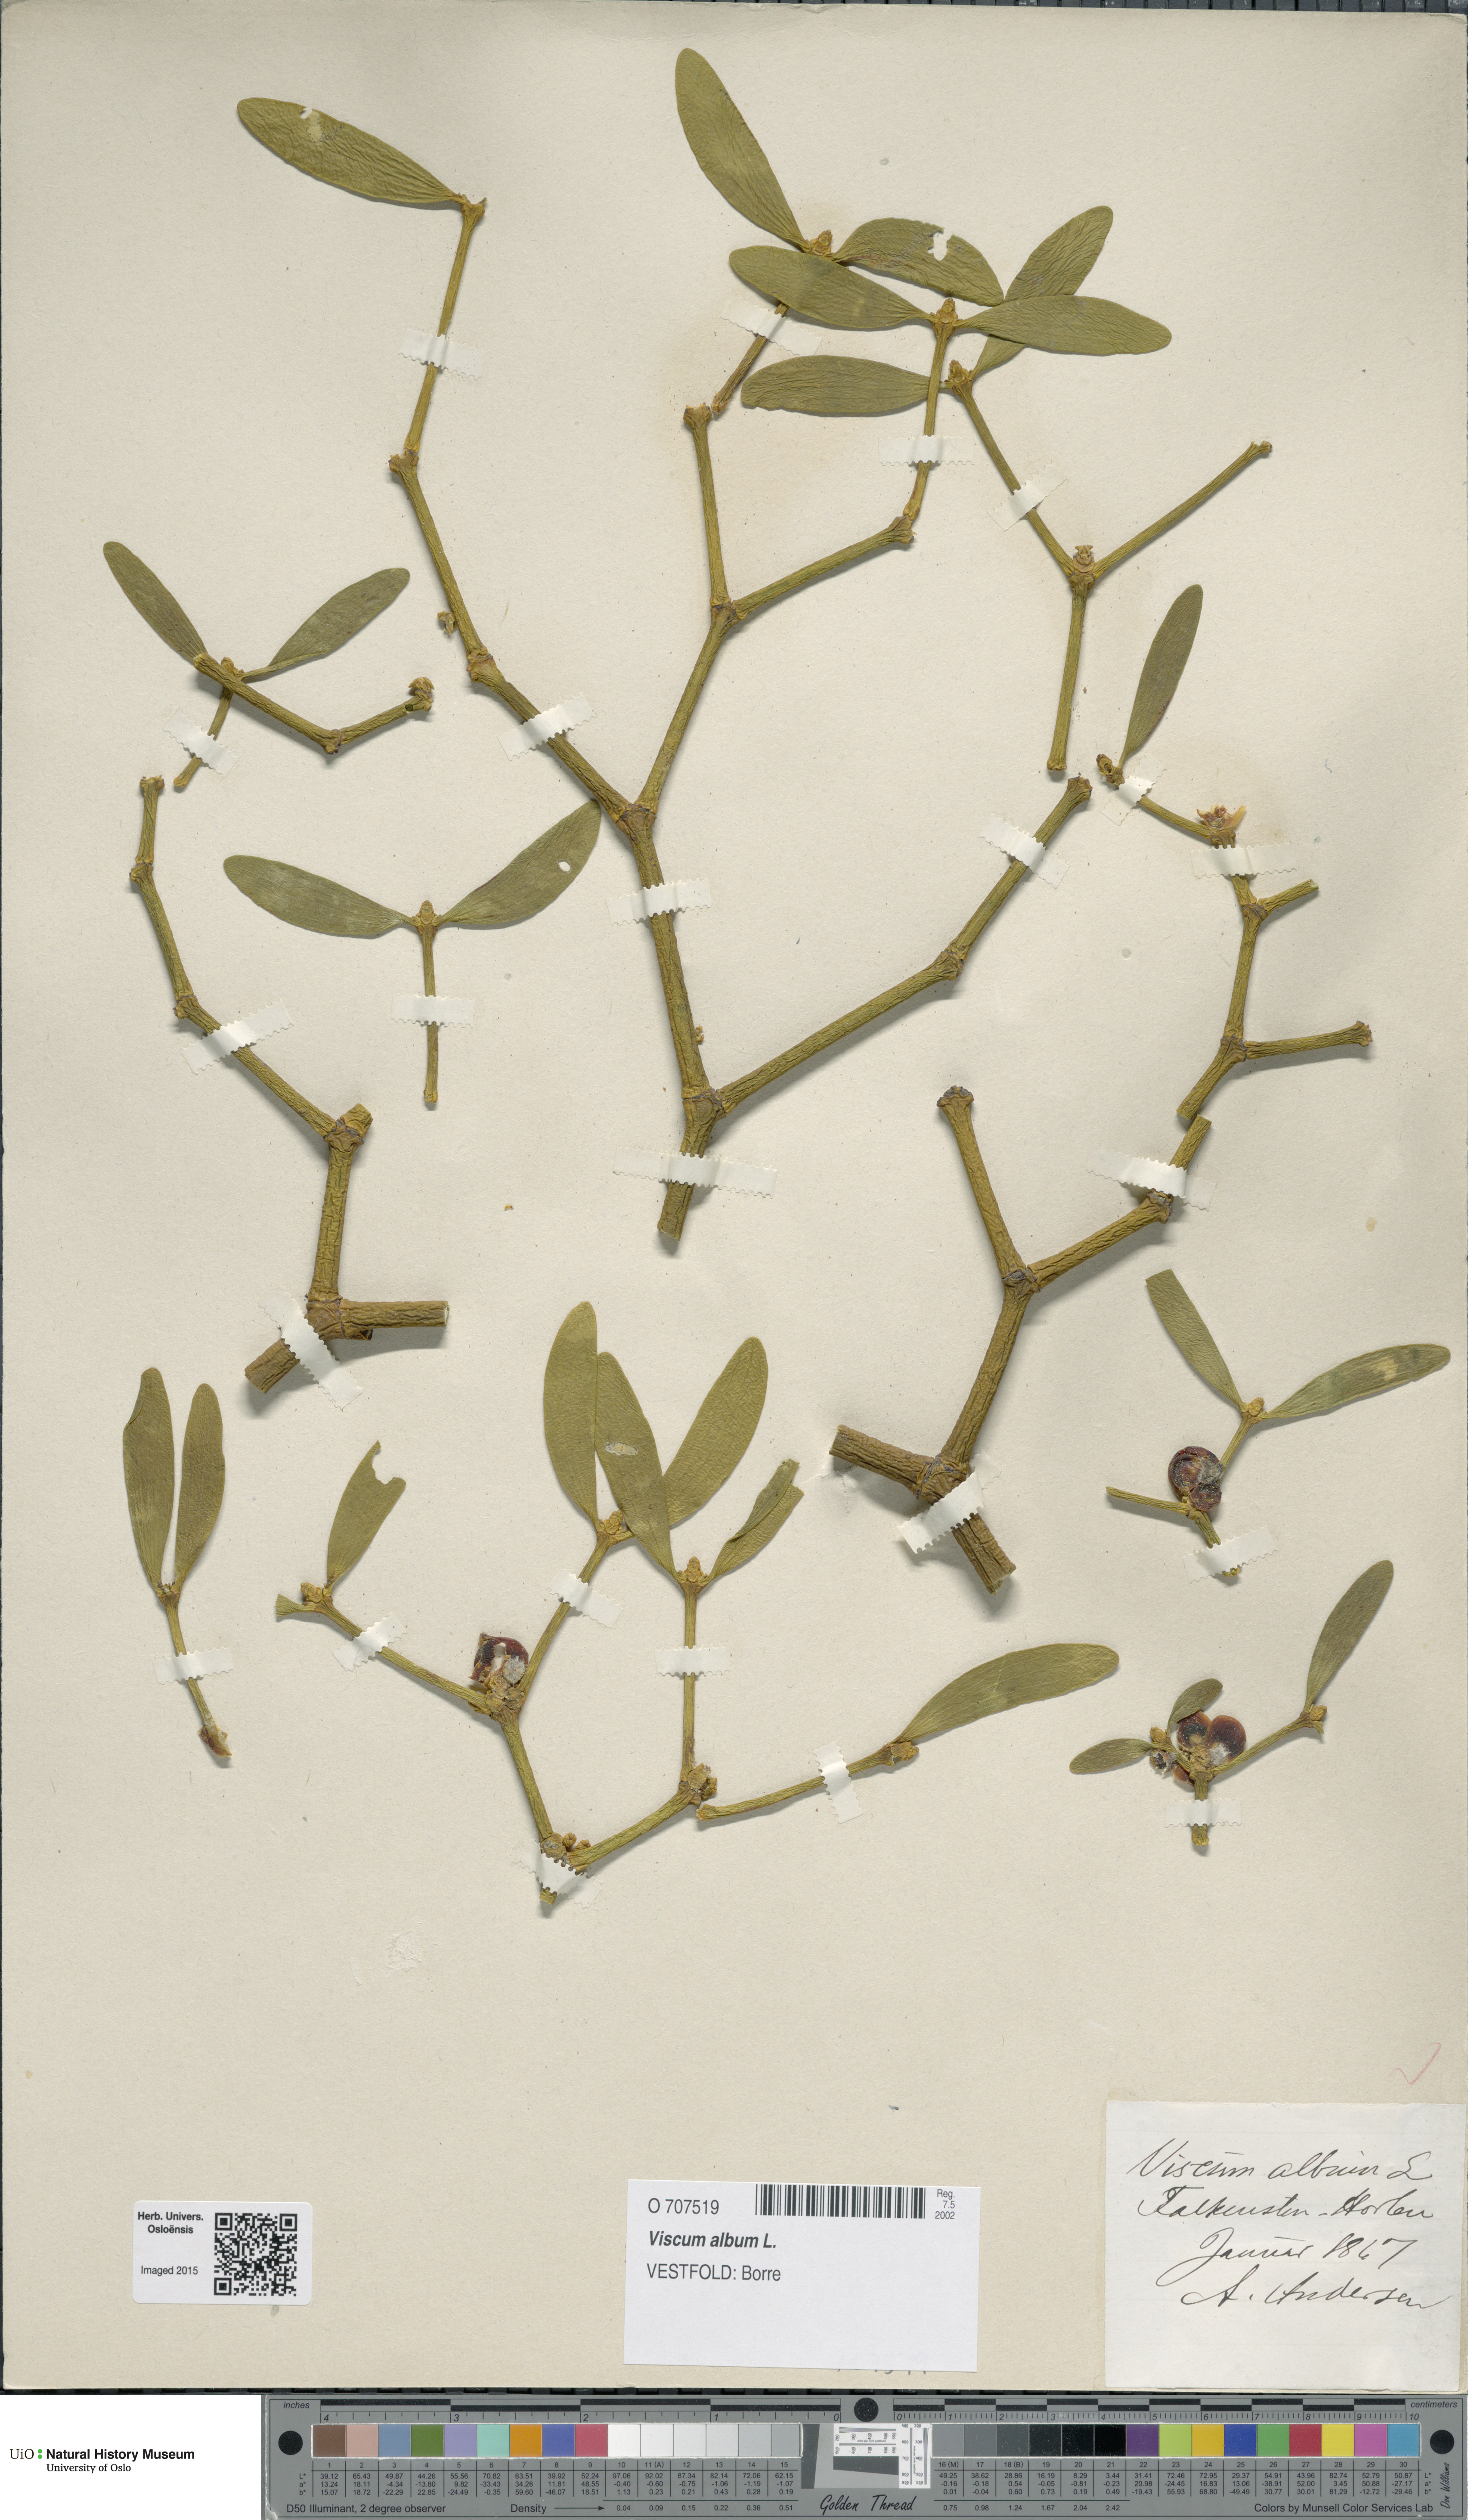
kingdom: Plantae
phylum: Tracheophyta
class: Magnoliopsida
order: Santalales
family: Viscaceae
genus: Viscum
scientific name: Viscum album
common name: Mistletoe
